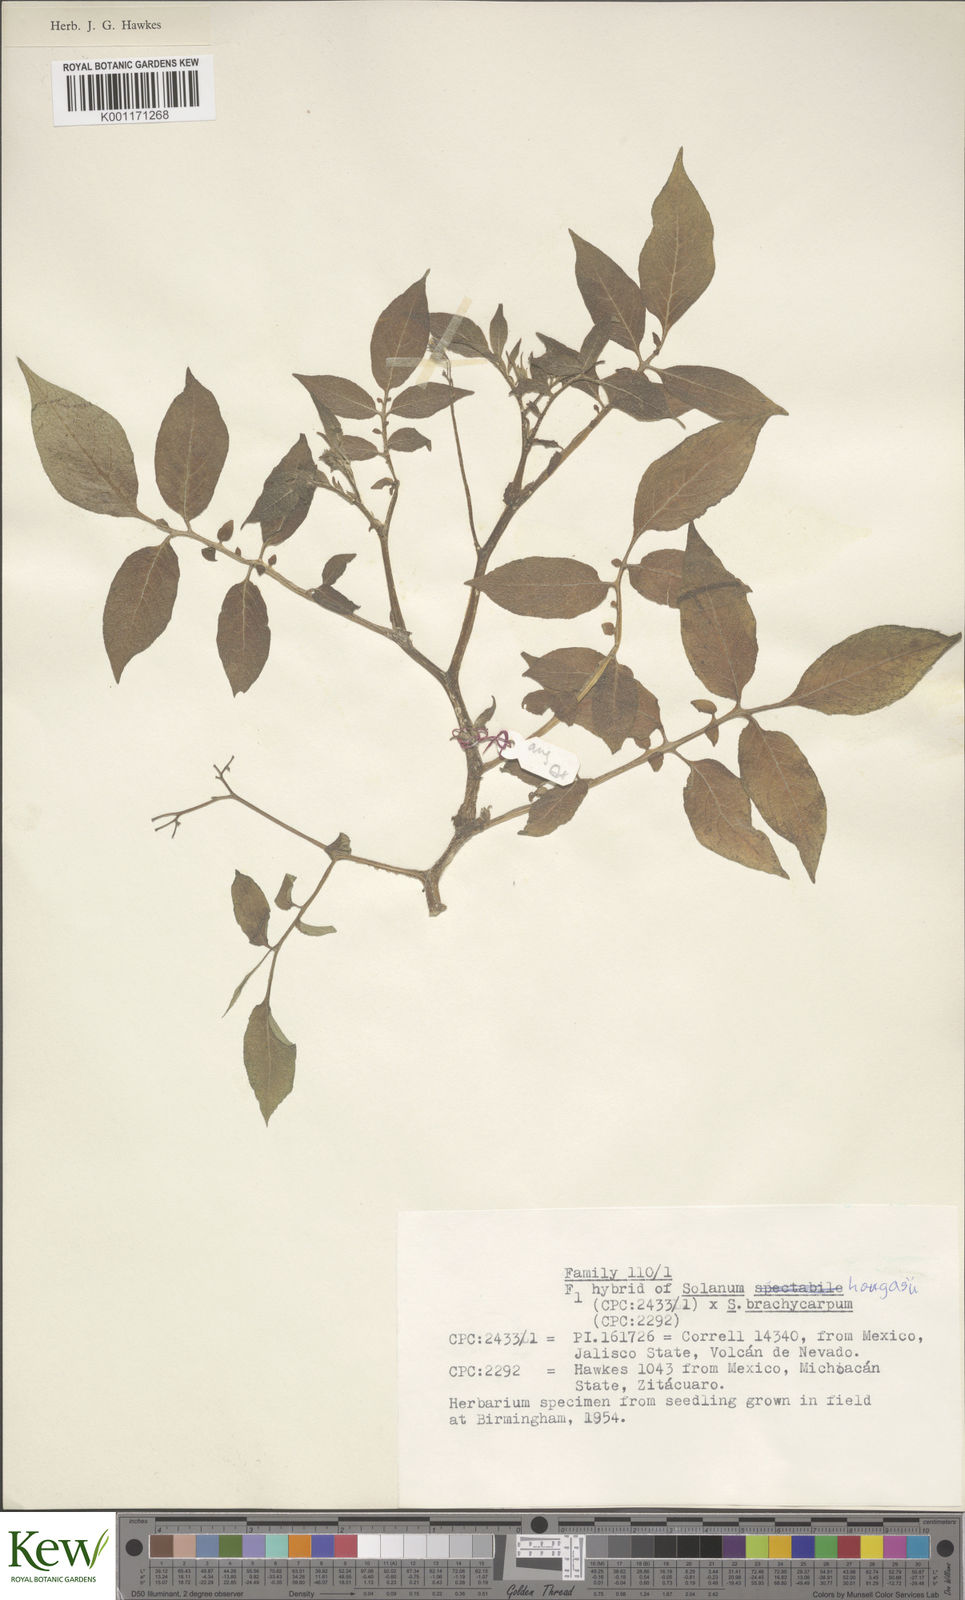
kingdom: Plantae
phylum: Tracheophyta
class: Magnoliopsida
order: Solanales
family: Solanaceae
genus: Solanum
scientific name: Solanum hougasii
